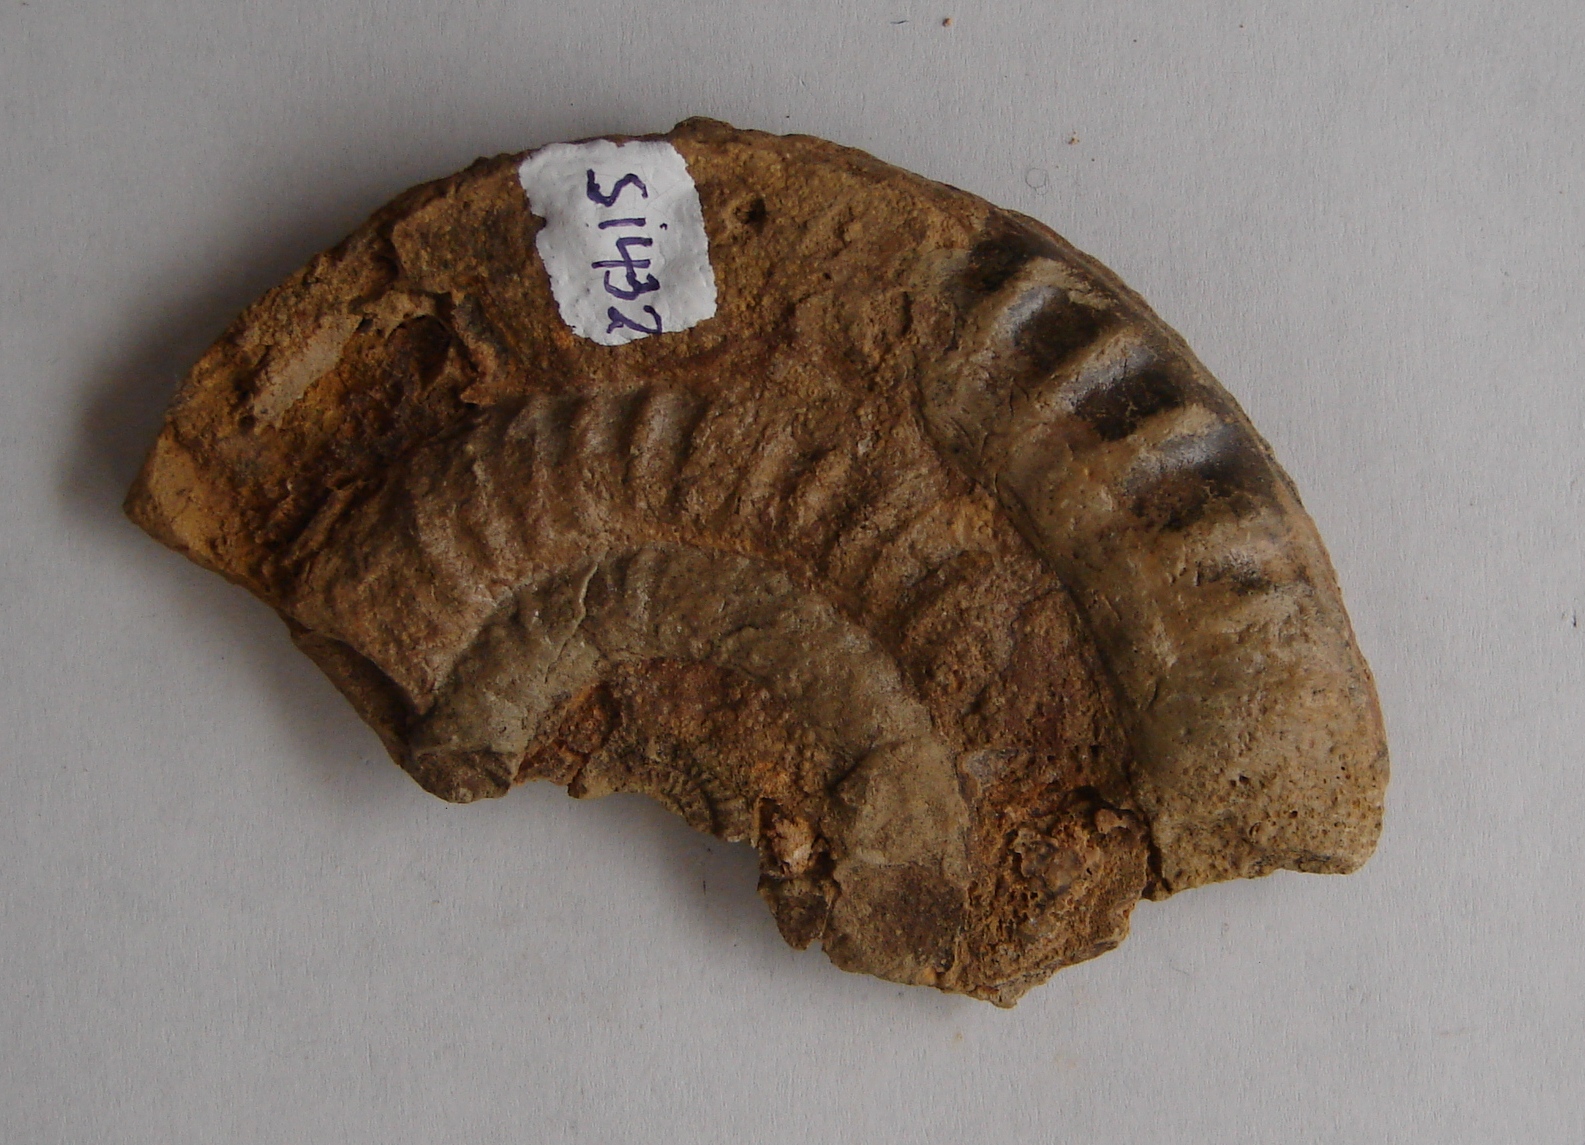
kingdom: Animalia
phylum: Mollusca
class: Cephalopoda
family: Echioceratidae
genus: Echioceras
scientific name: Echioceras
